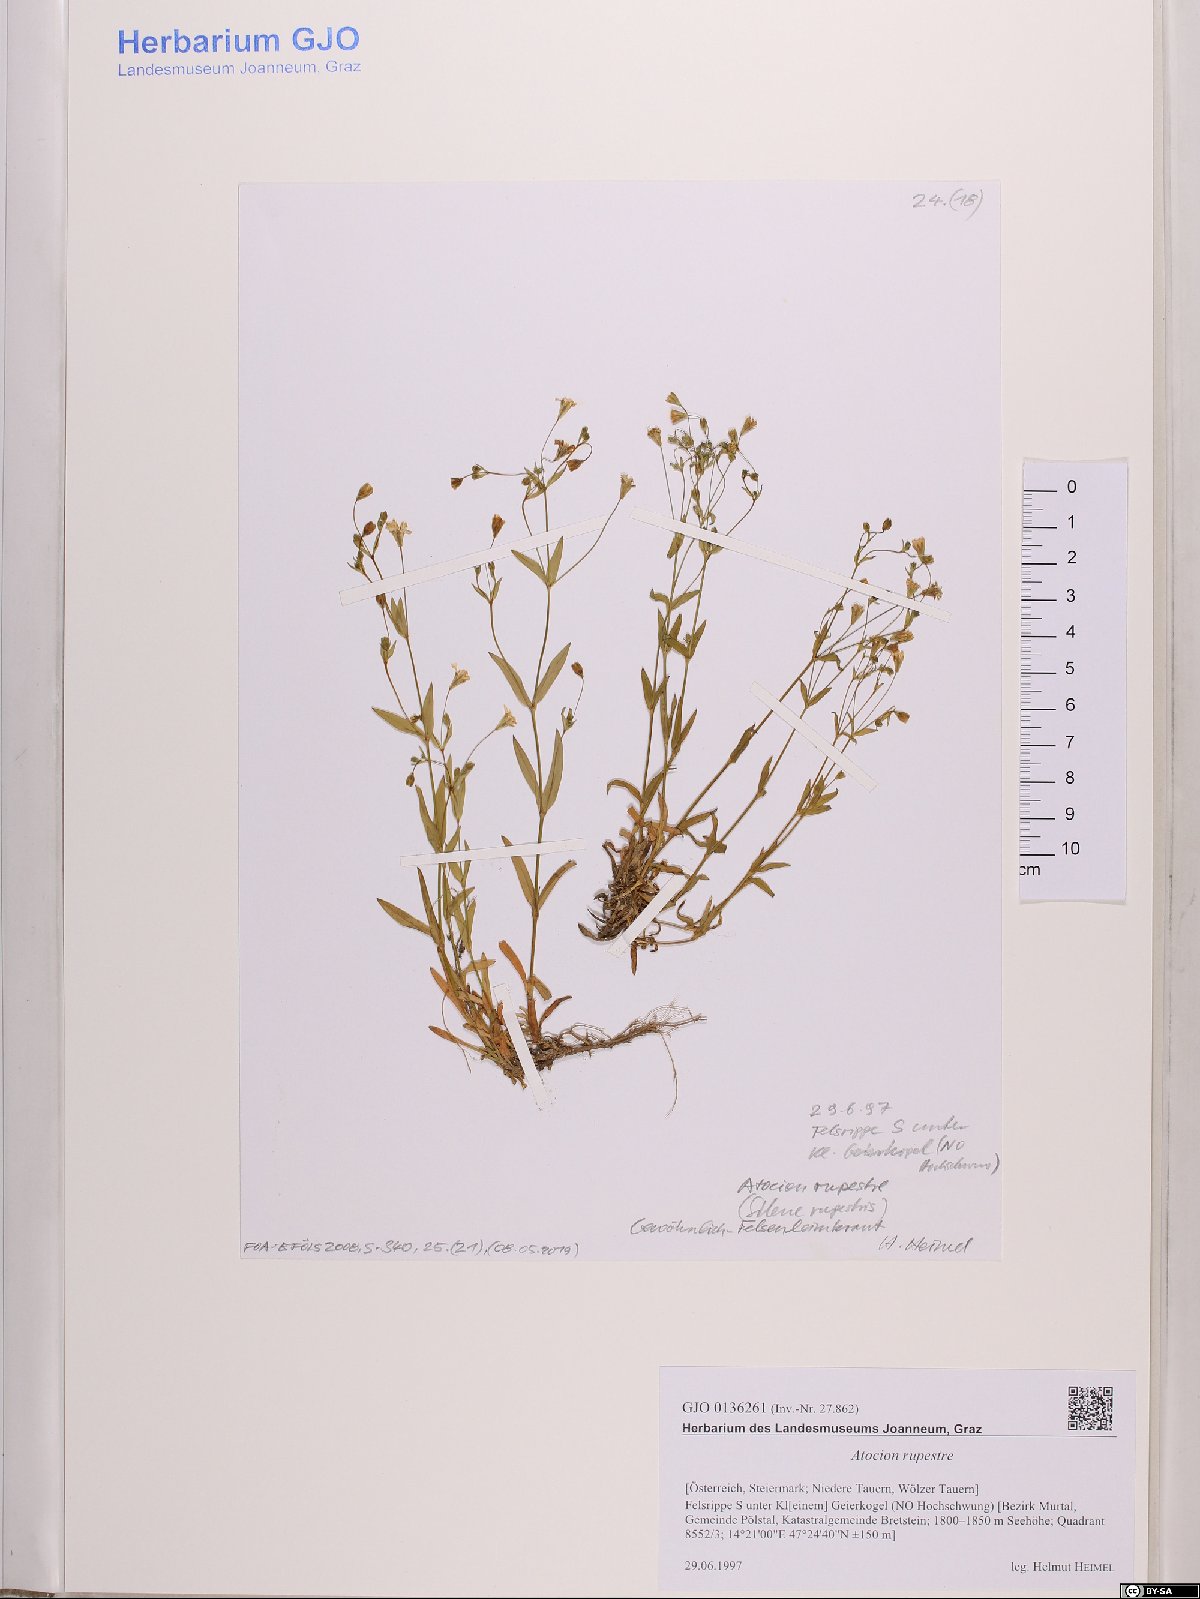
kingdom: Plantae
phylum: Tracheophyta
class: Magnoliopsida
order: Caryophyllales
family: Caryophyllaceae
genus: Atocion
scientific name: Atocion rupestre
